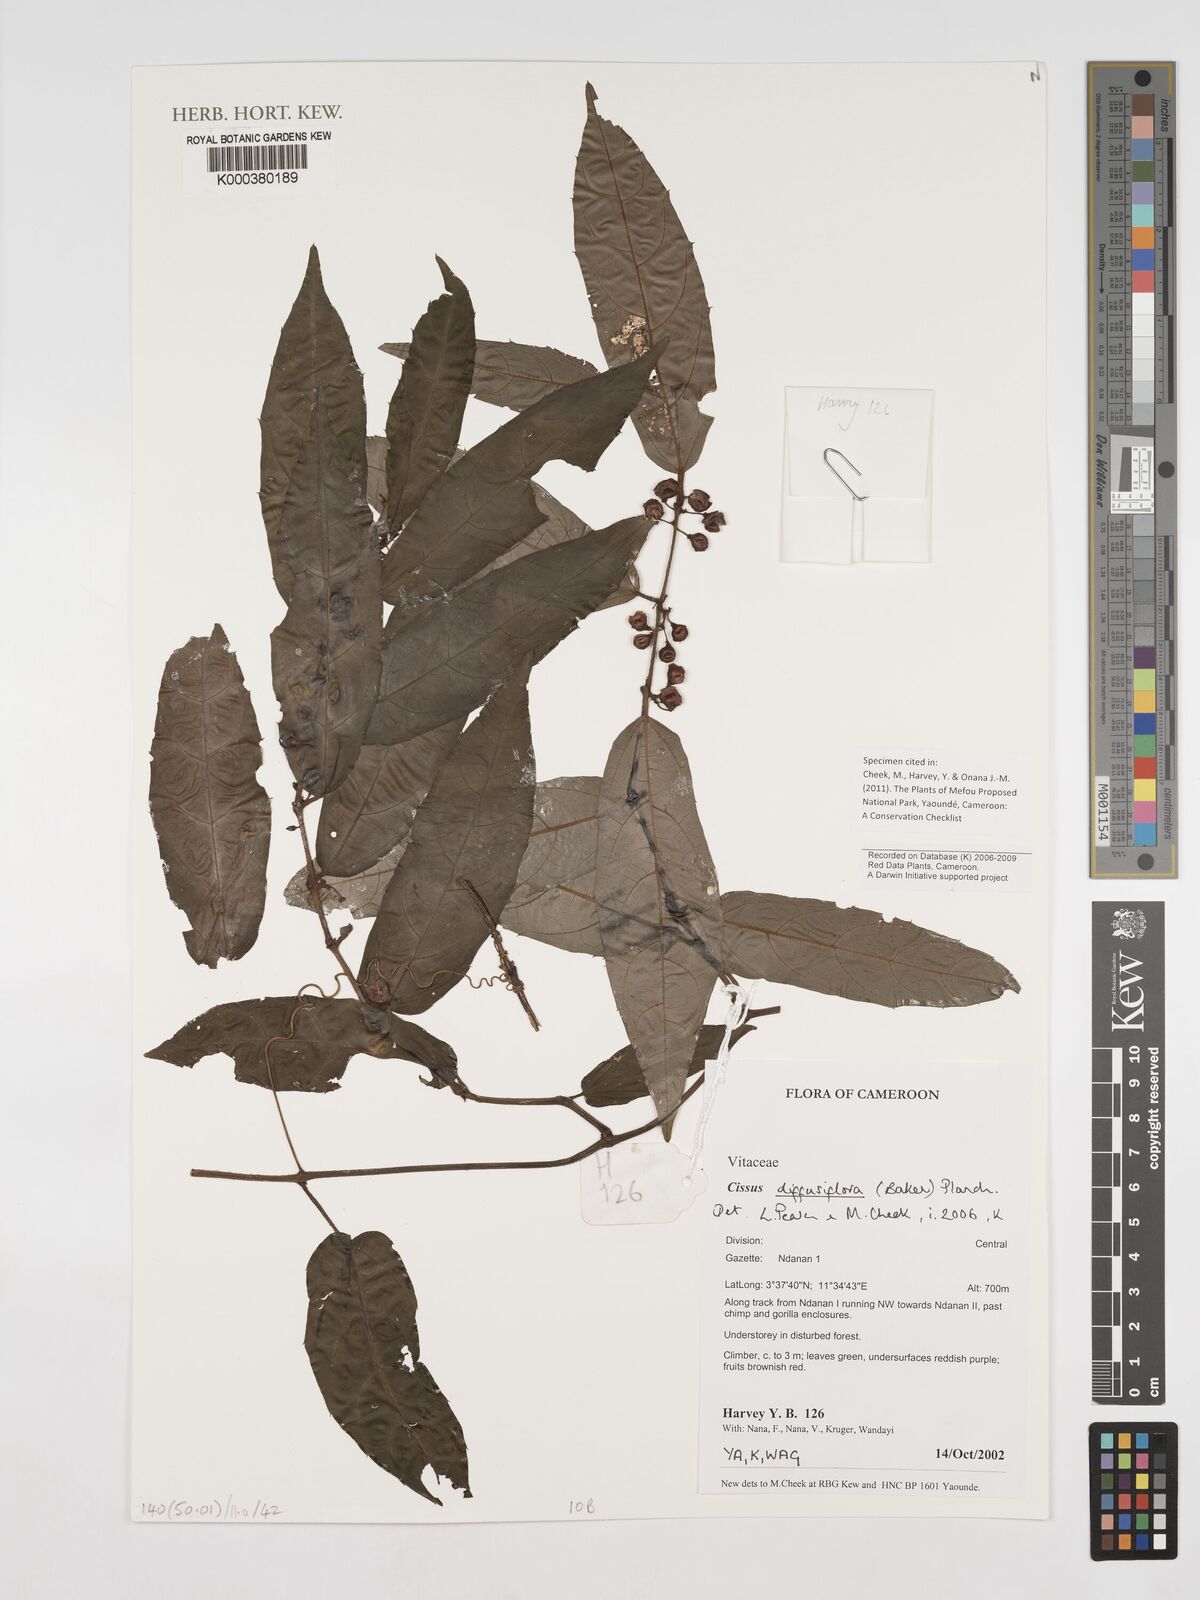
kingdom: Plantae
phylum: Tracheophyta
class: Magnoliopsida
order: Vitales
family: Vitaceae
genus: Cissus
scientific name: Cissus diffusiflora
